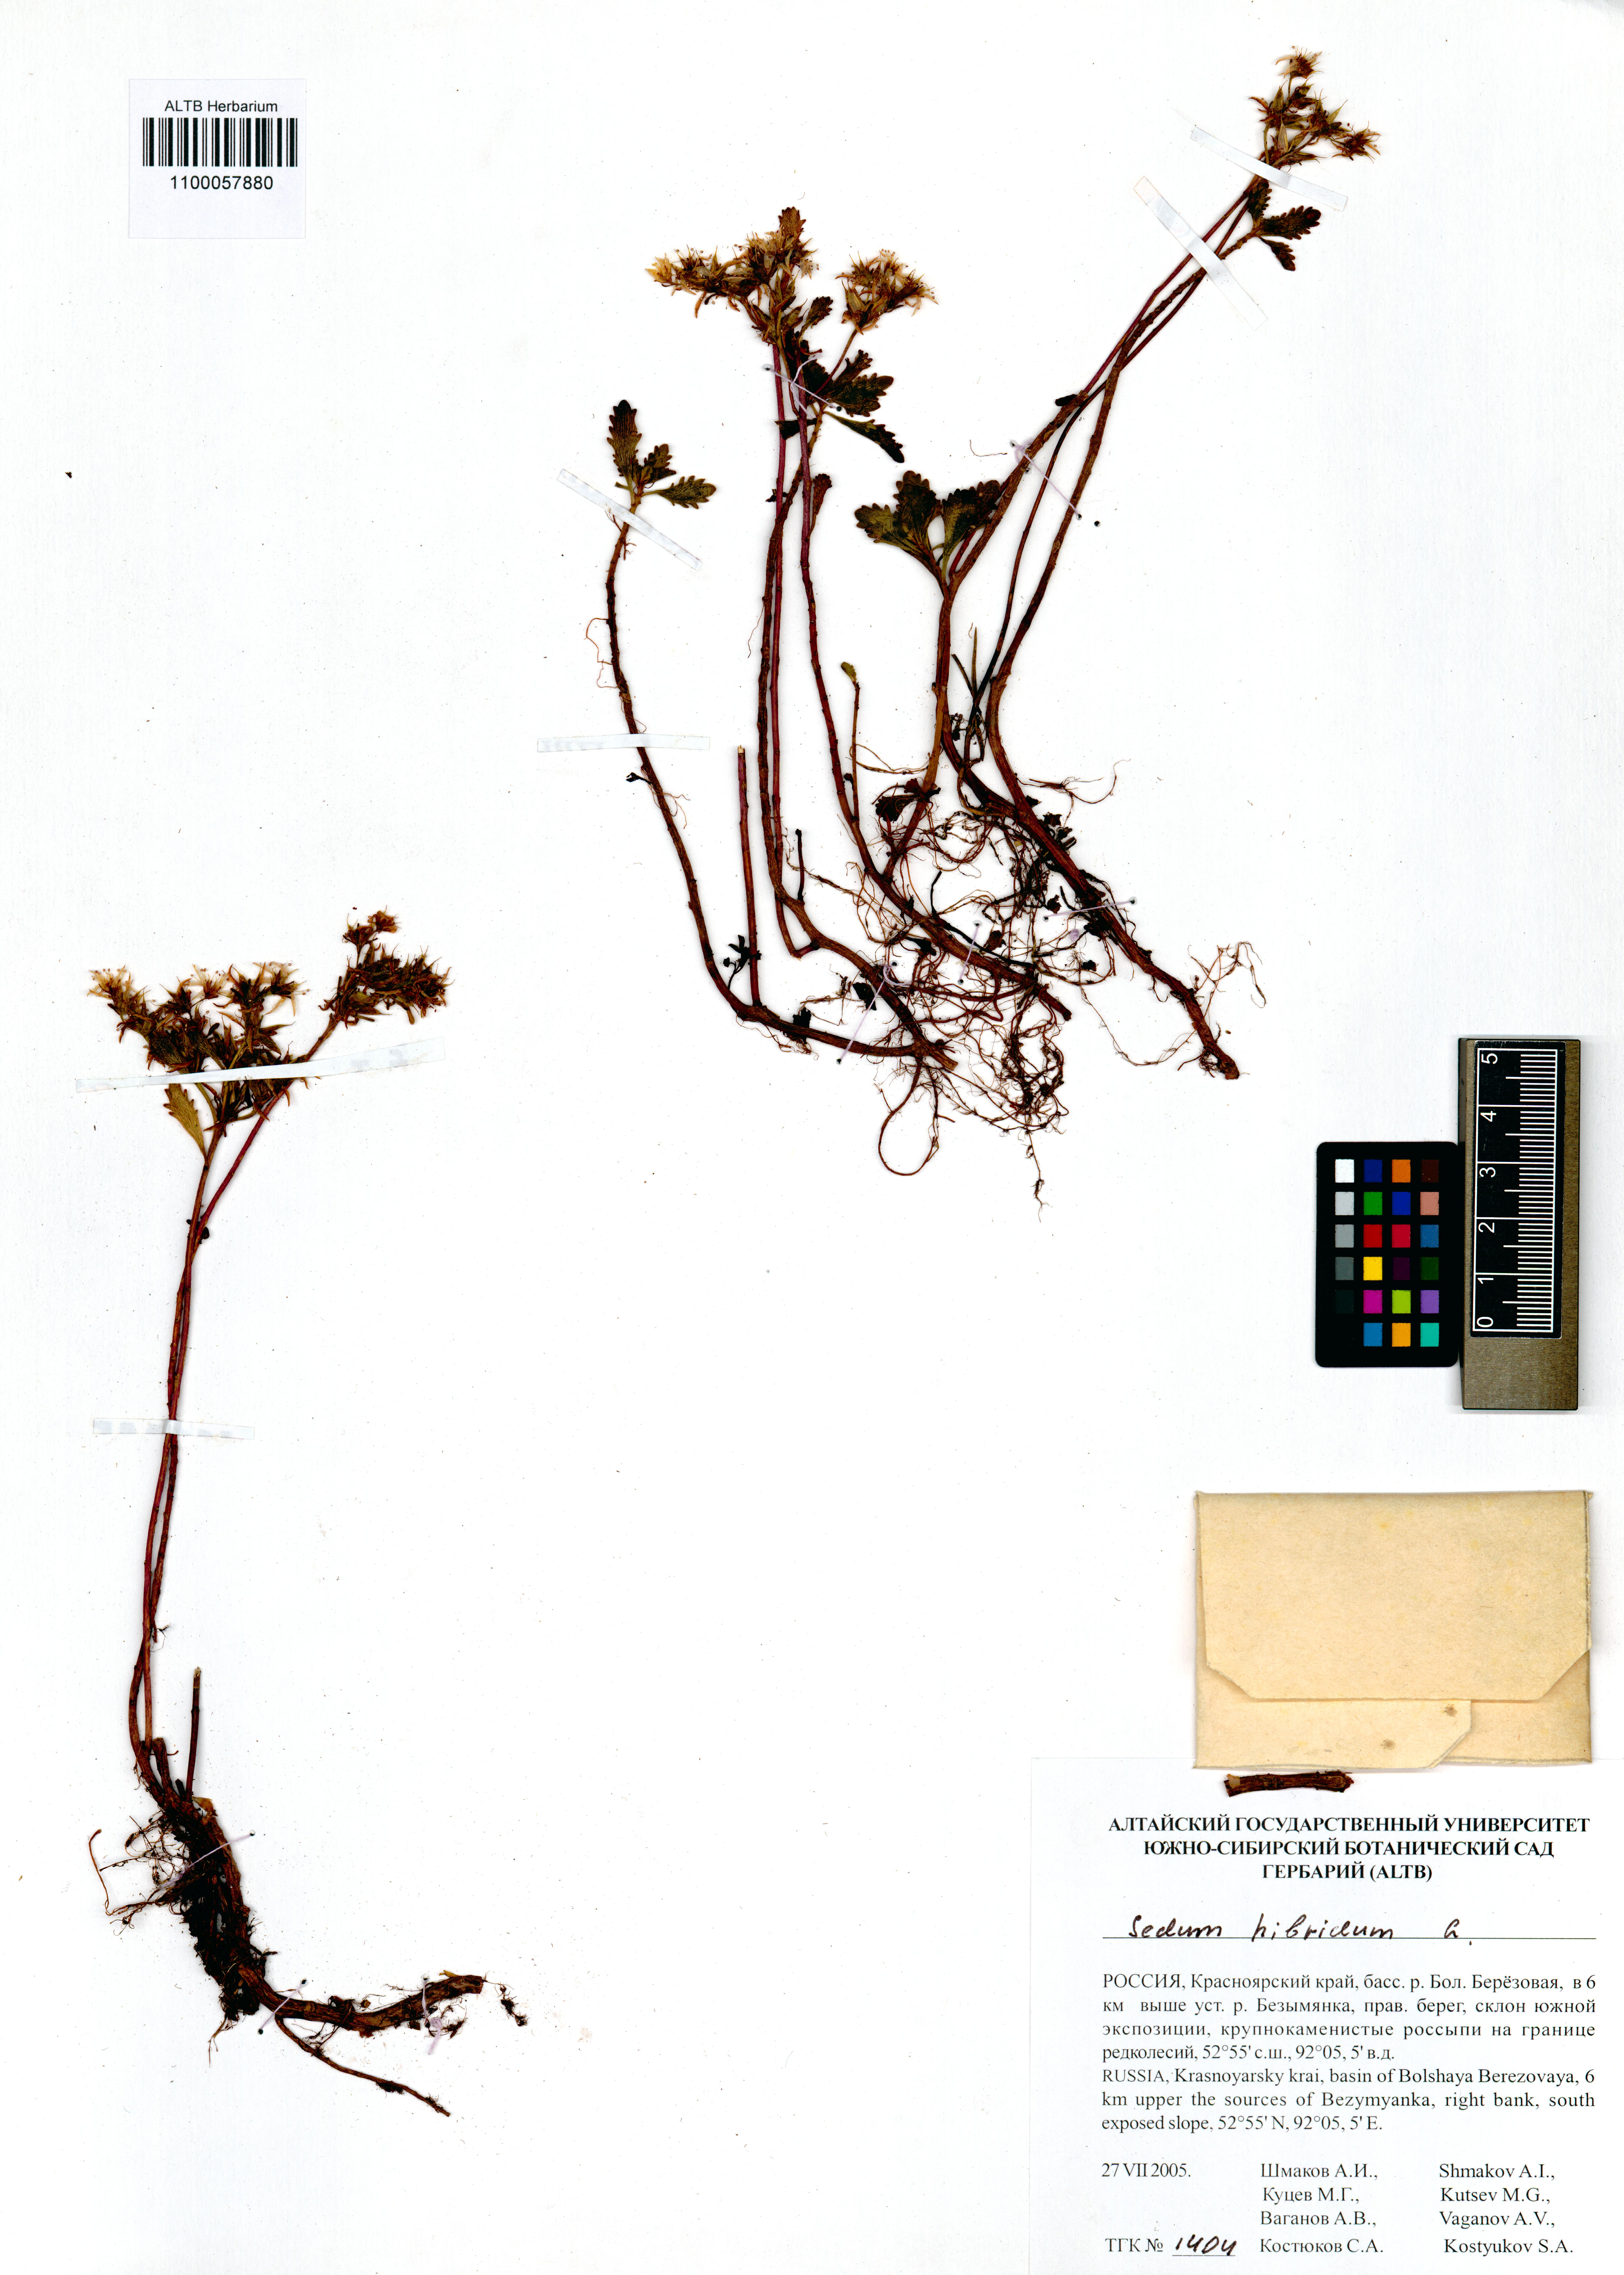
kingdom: Plantae
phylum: Tracheophyta
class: Magnoliopsida
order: Saxifragales
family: Crassulaceae
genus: Phedimus
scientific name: Phedimus hybridus
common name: Hybrid stonecrop
